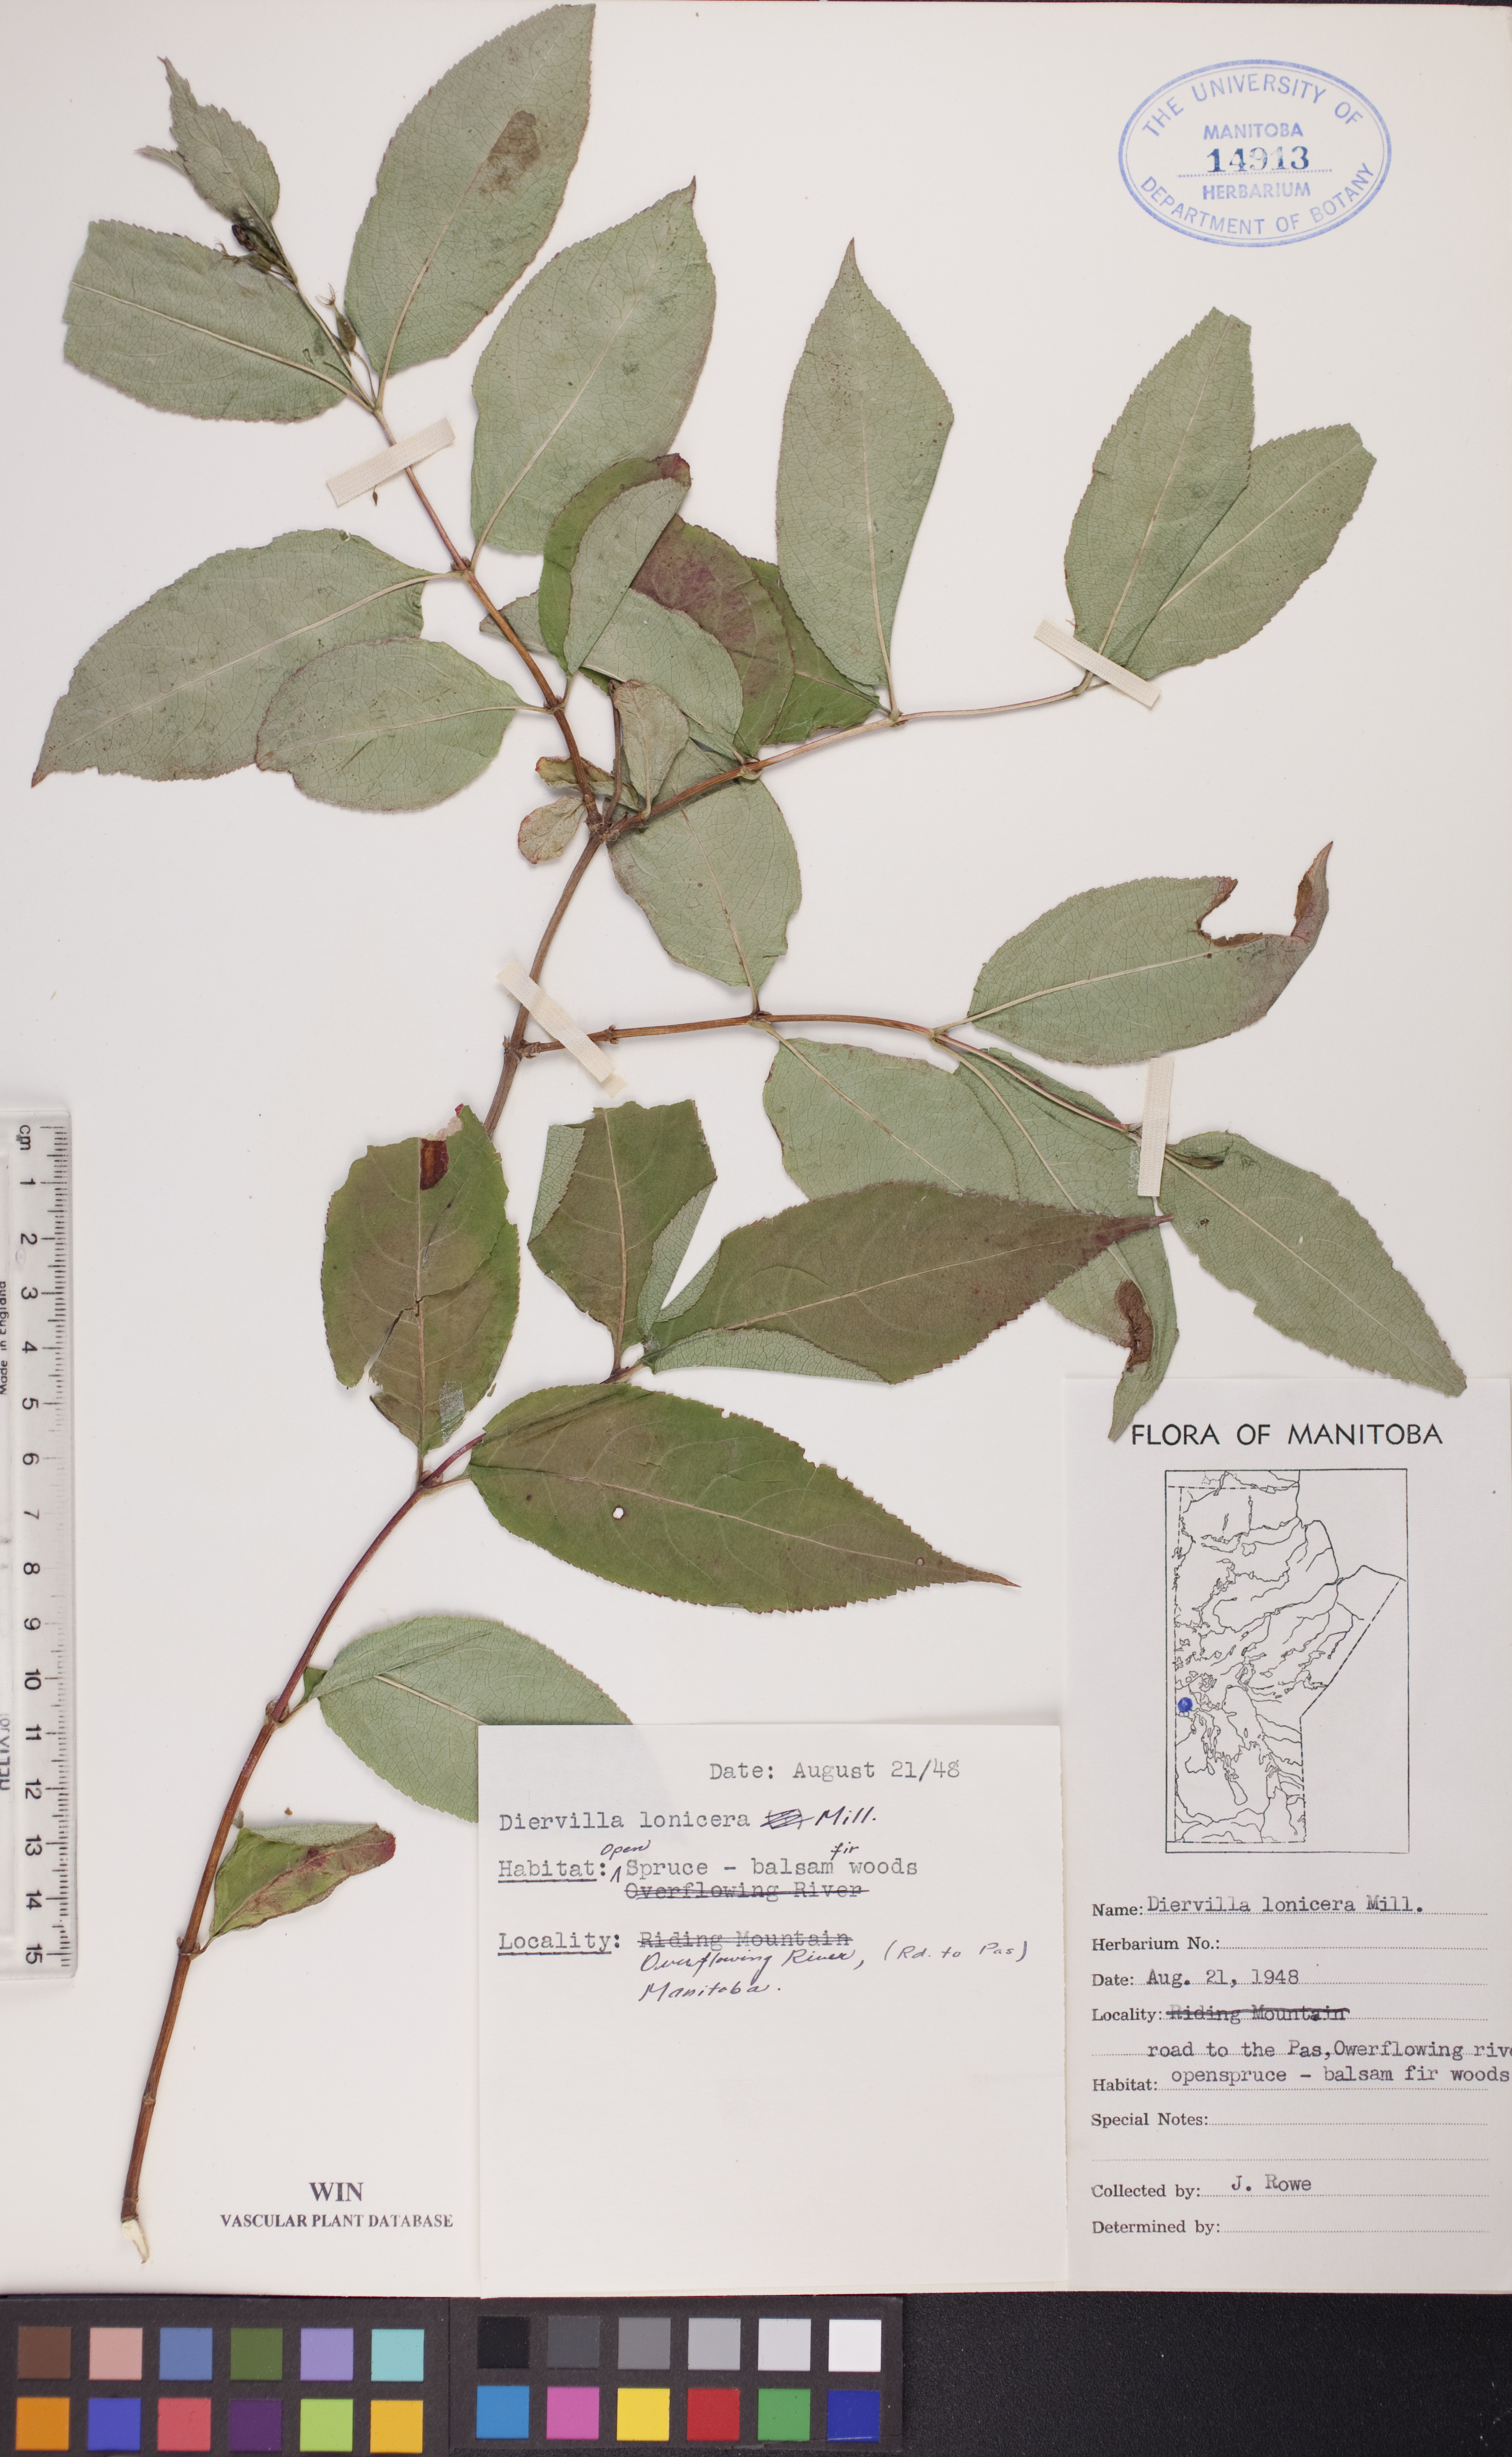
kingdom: Plantae
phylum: Tracheophyta
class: Magnoliopsida
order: Dipsacales
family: Caprifoliaceae
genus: Diervilla
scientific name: Diervilla lonicera
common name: Bush-honeysuckle
